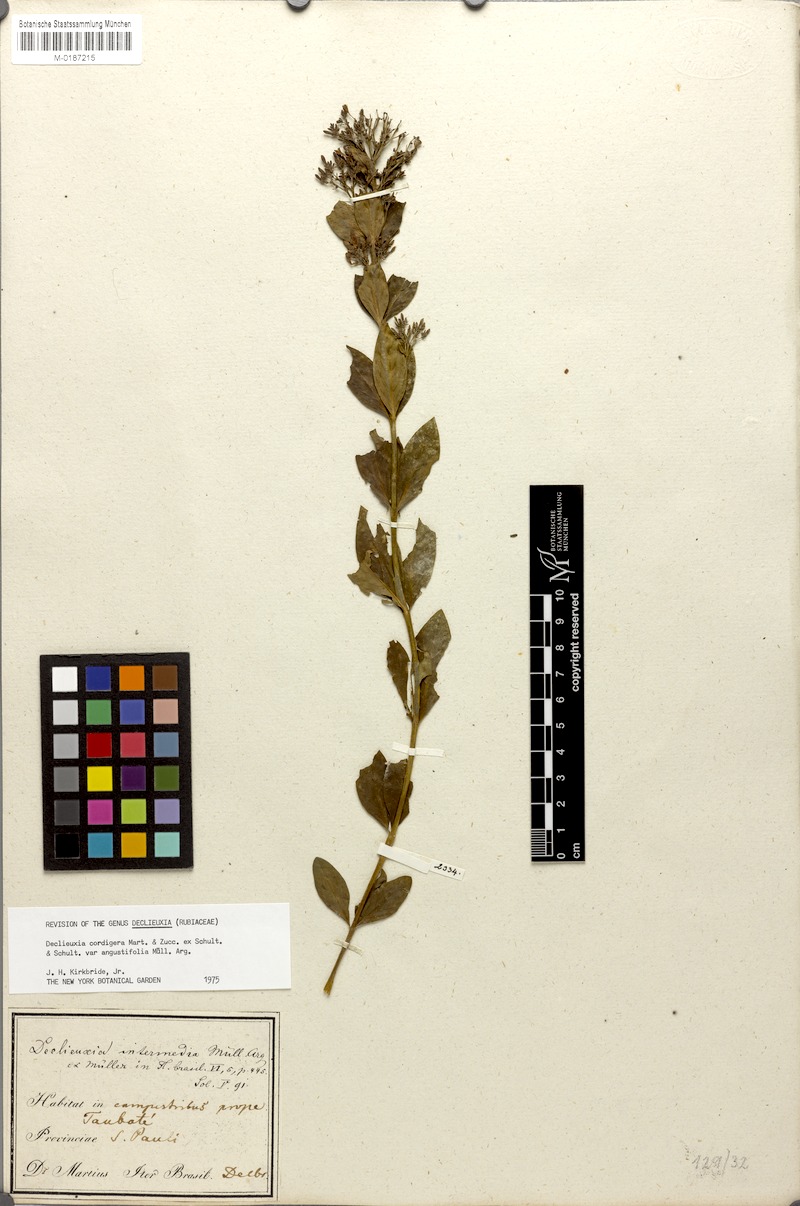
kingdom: Plantae
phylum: Tracheophyta
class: Magnoliopsida
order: Gentianales
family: Rubiaceae
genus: Declieuxia
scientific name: Declieuxia cordigera
